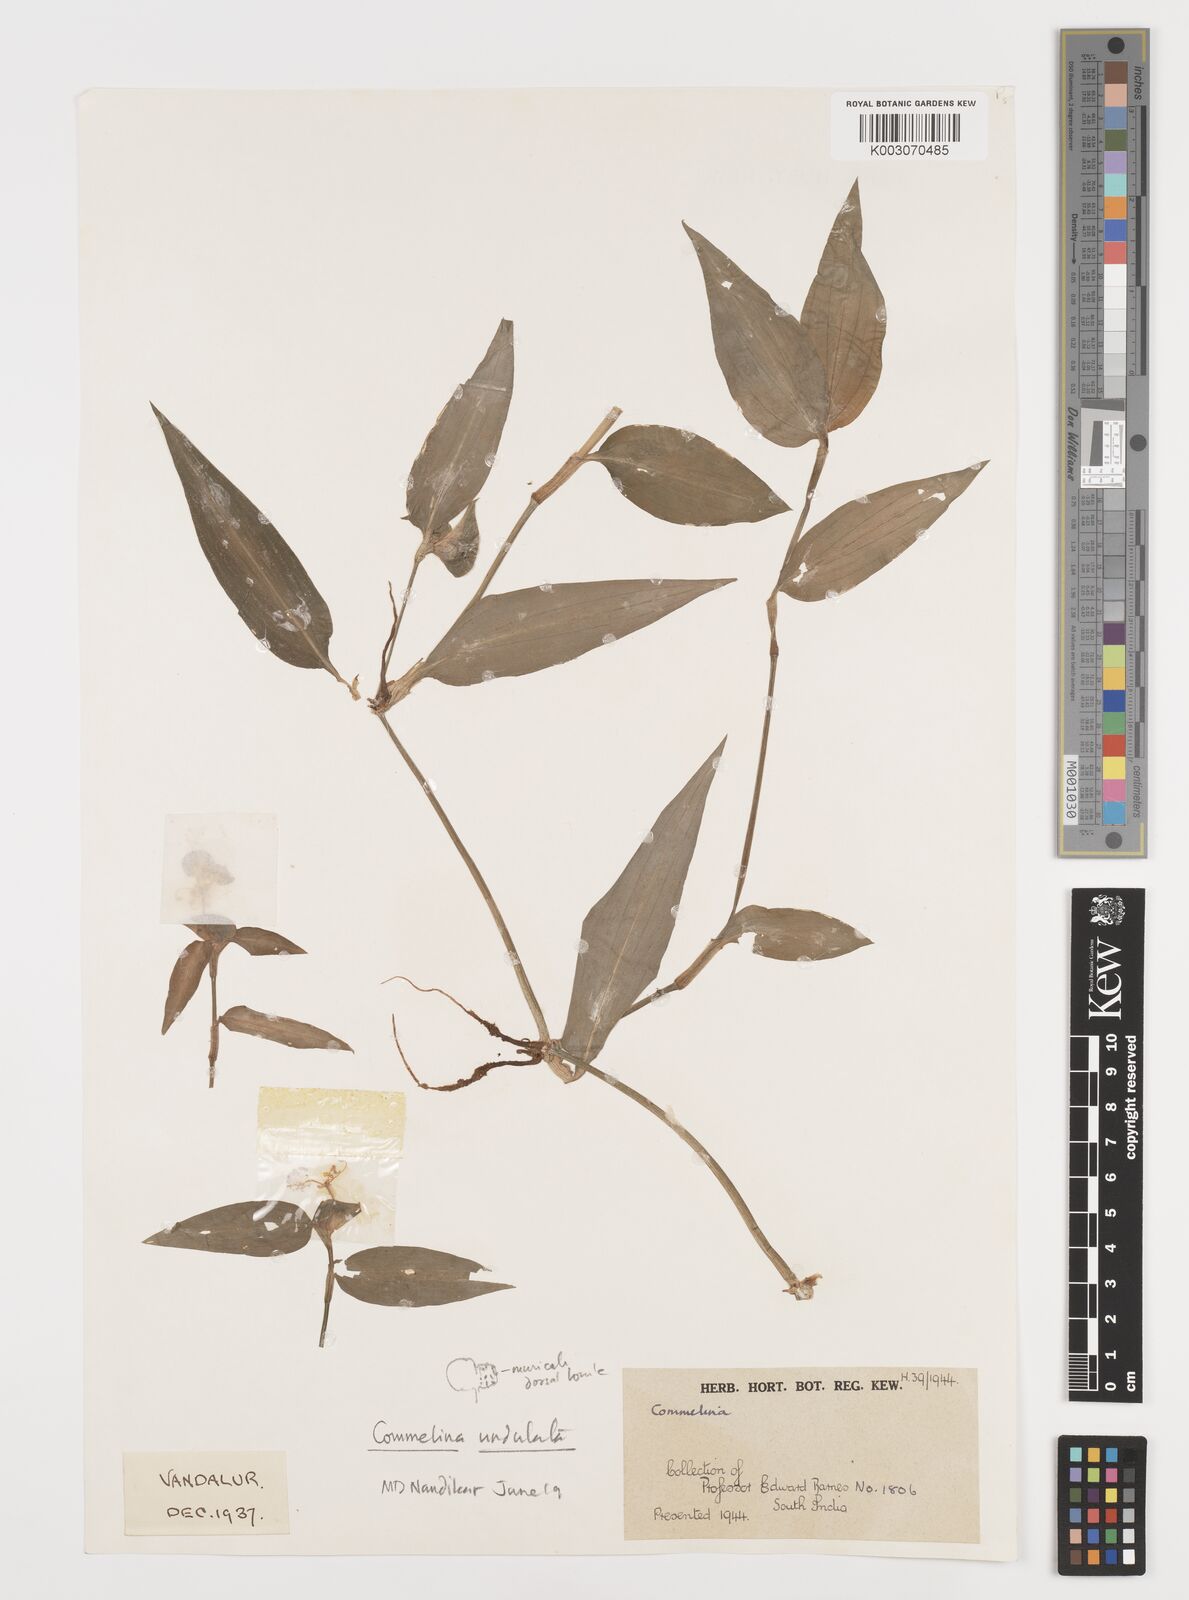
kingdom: Plantae
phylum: Tracheophyta
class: Liliopsida
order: Commelinales
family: Commelinaceae
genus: Commelina
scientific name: Commelina
